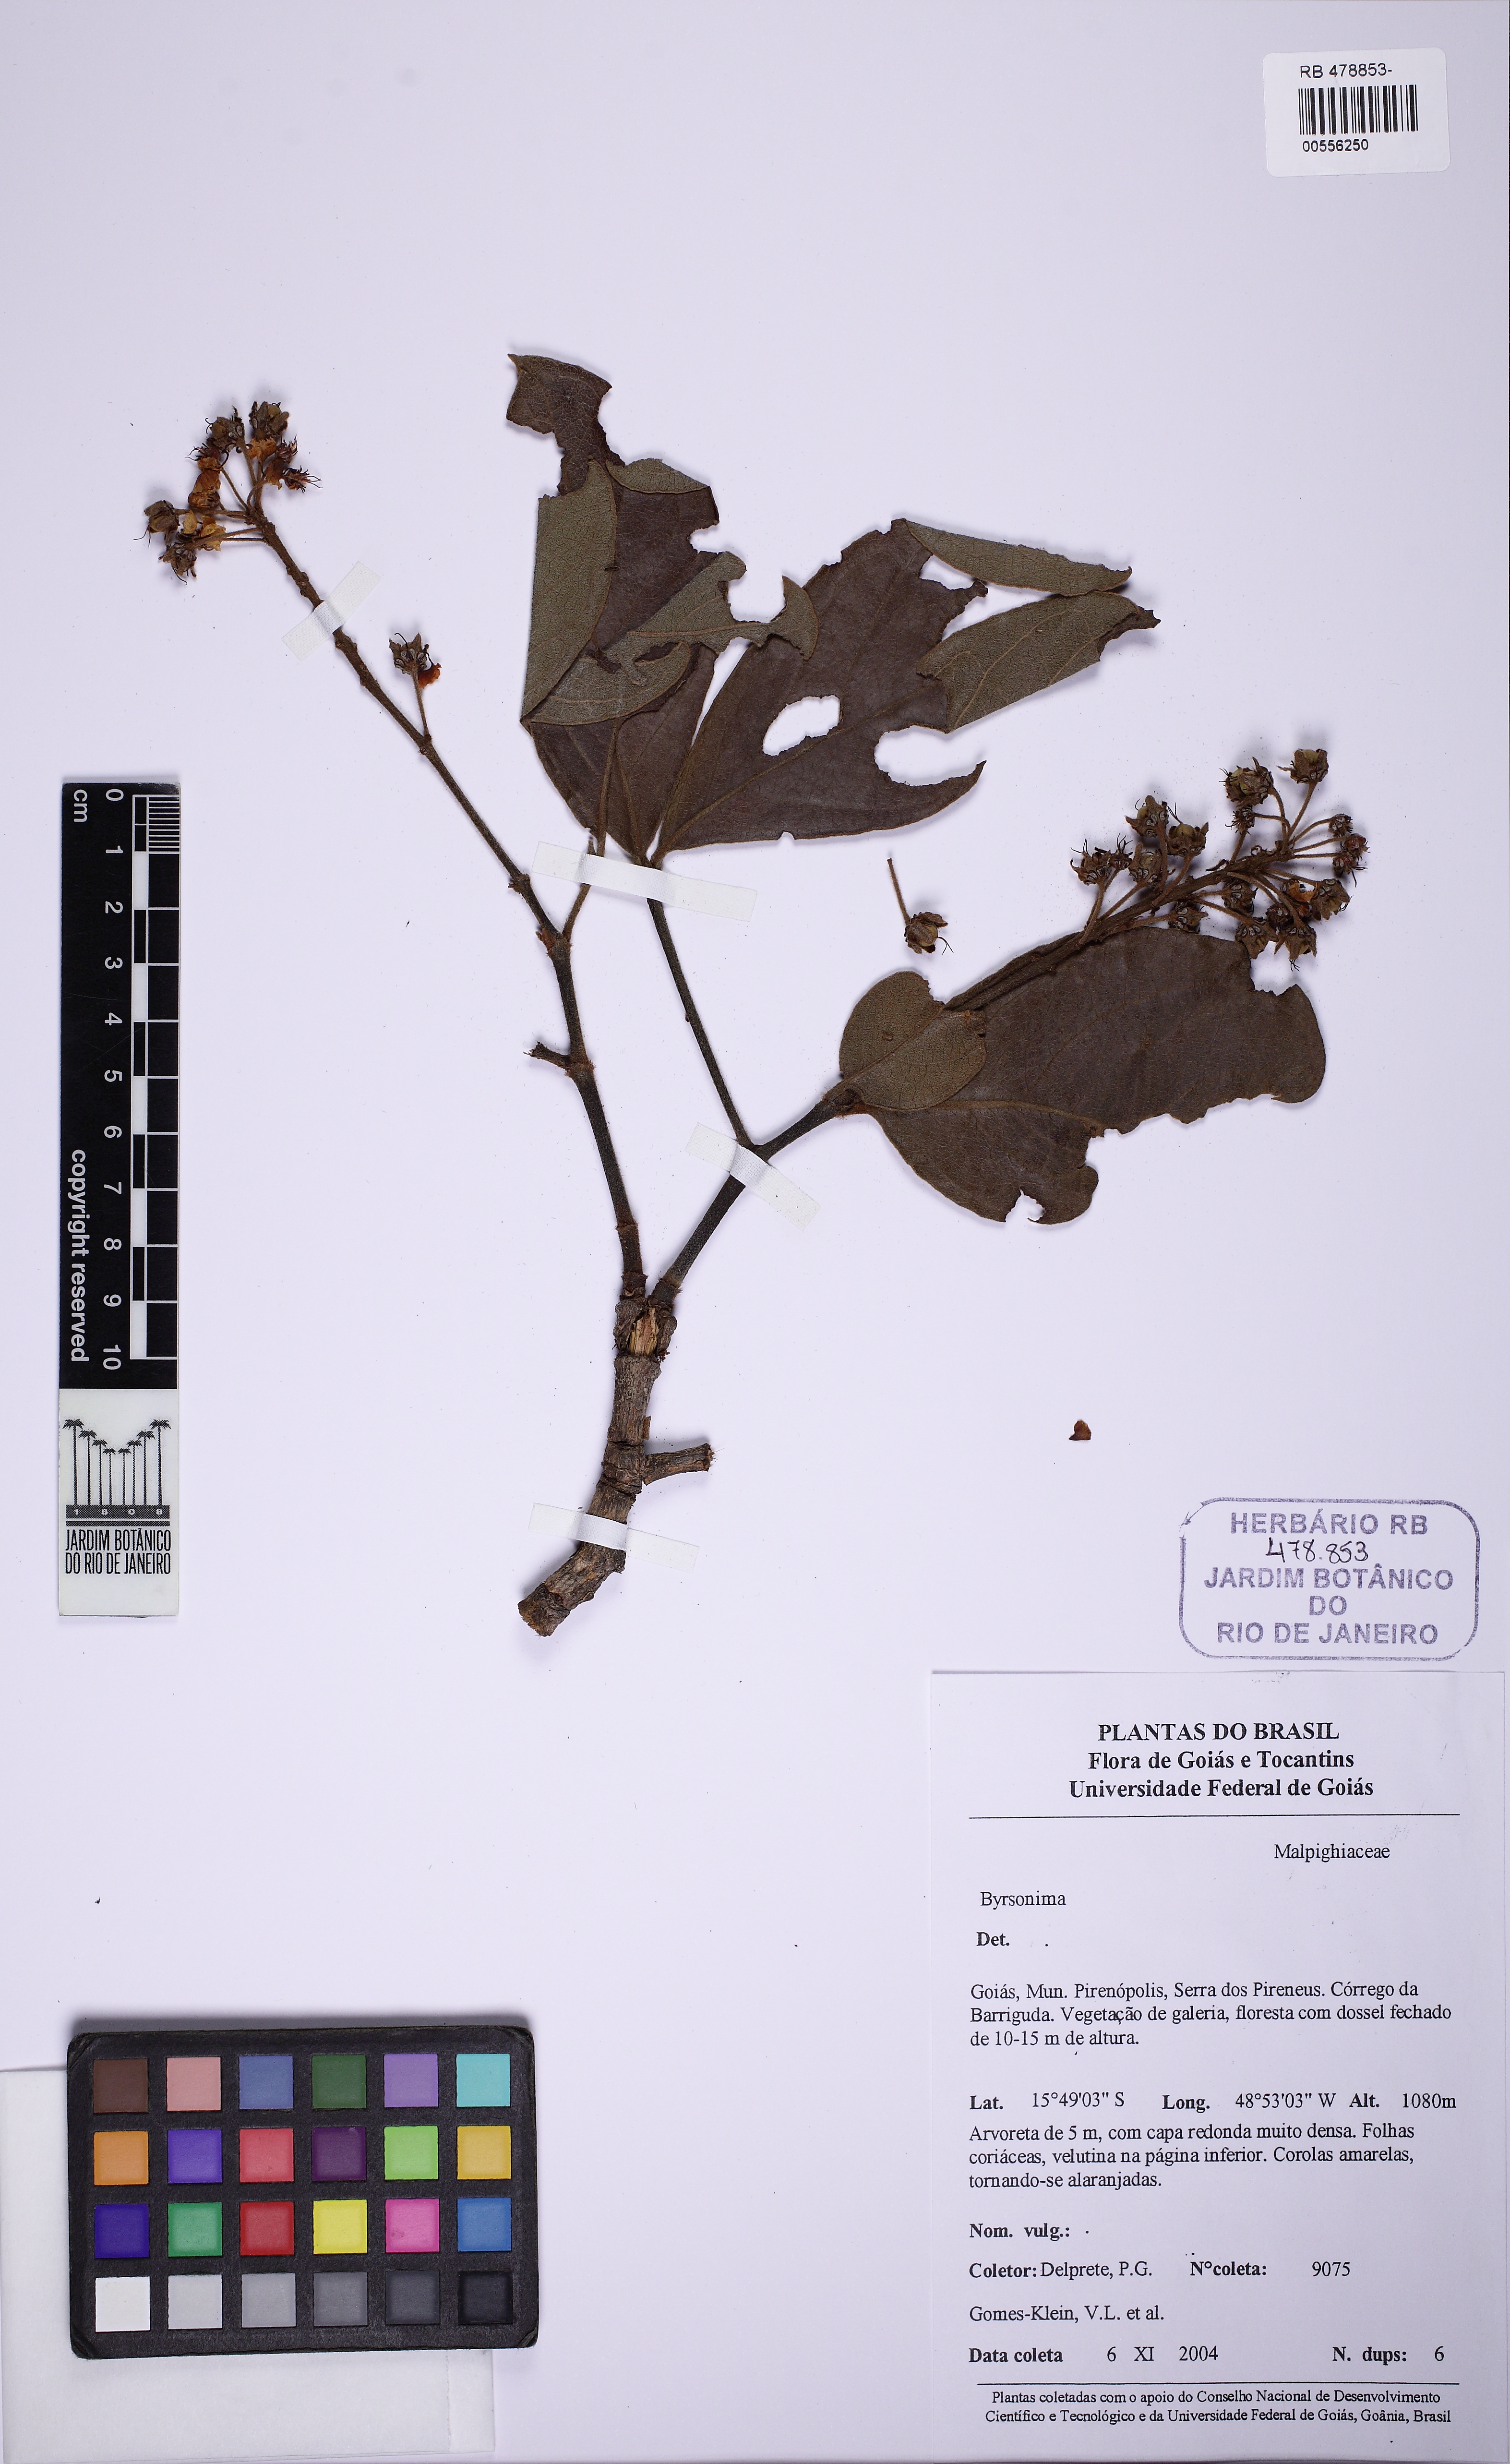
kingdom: Plantae
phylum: Tracheophyta
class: Magnoliopsida
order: Malpighiales
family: Malpighiaceae
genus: Byrsonima
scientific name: Byrsonima crassifolia
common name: Golden spoon
